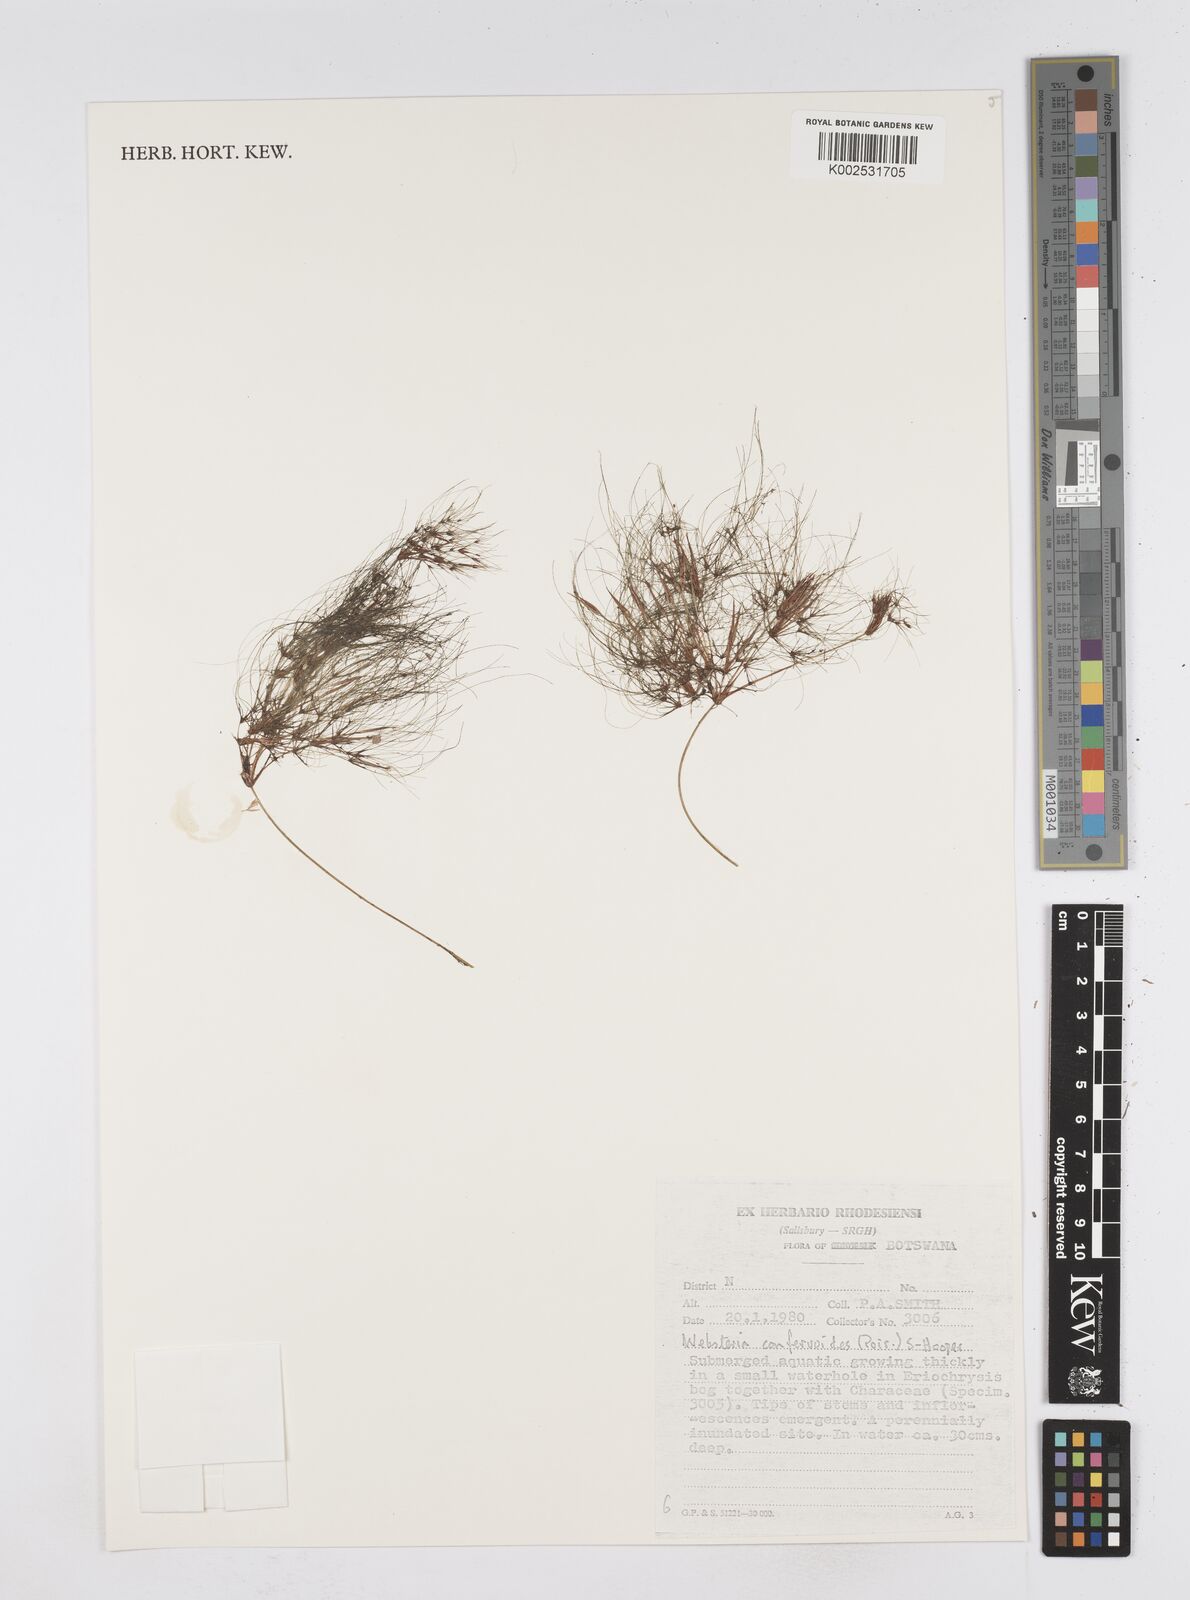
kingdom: Plantae
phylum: Tracheophyta
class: Liliopsida
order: Poales
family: Cyperaceae
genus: Eleocharis
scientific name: Eleocharis confervoides
